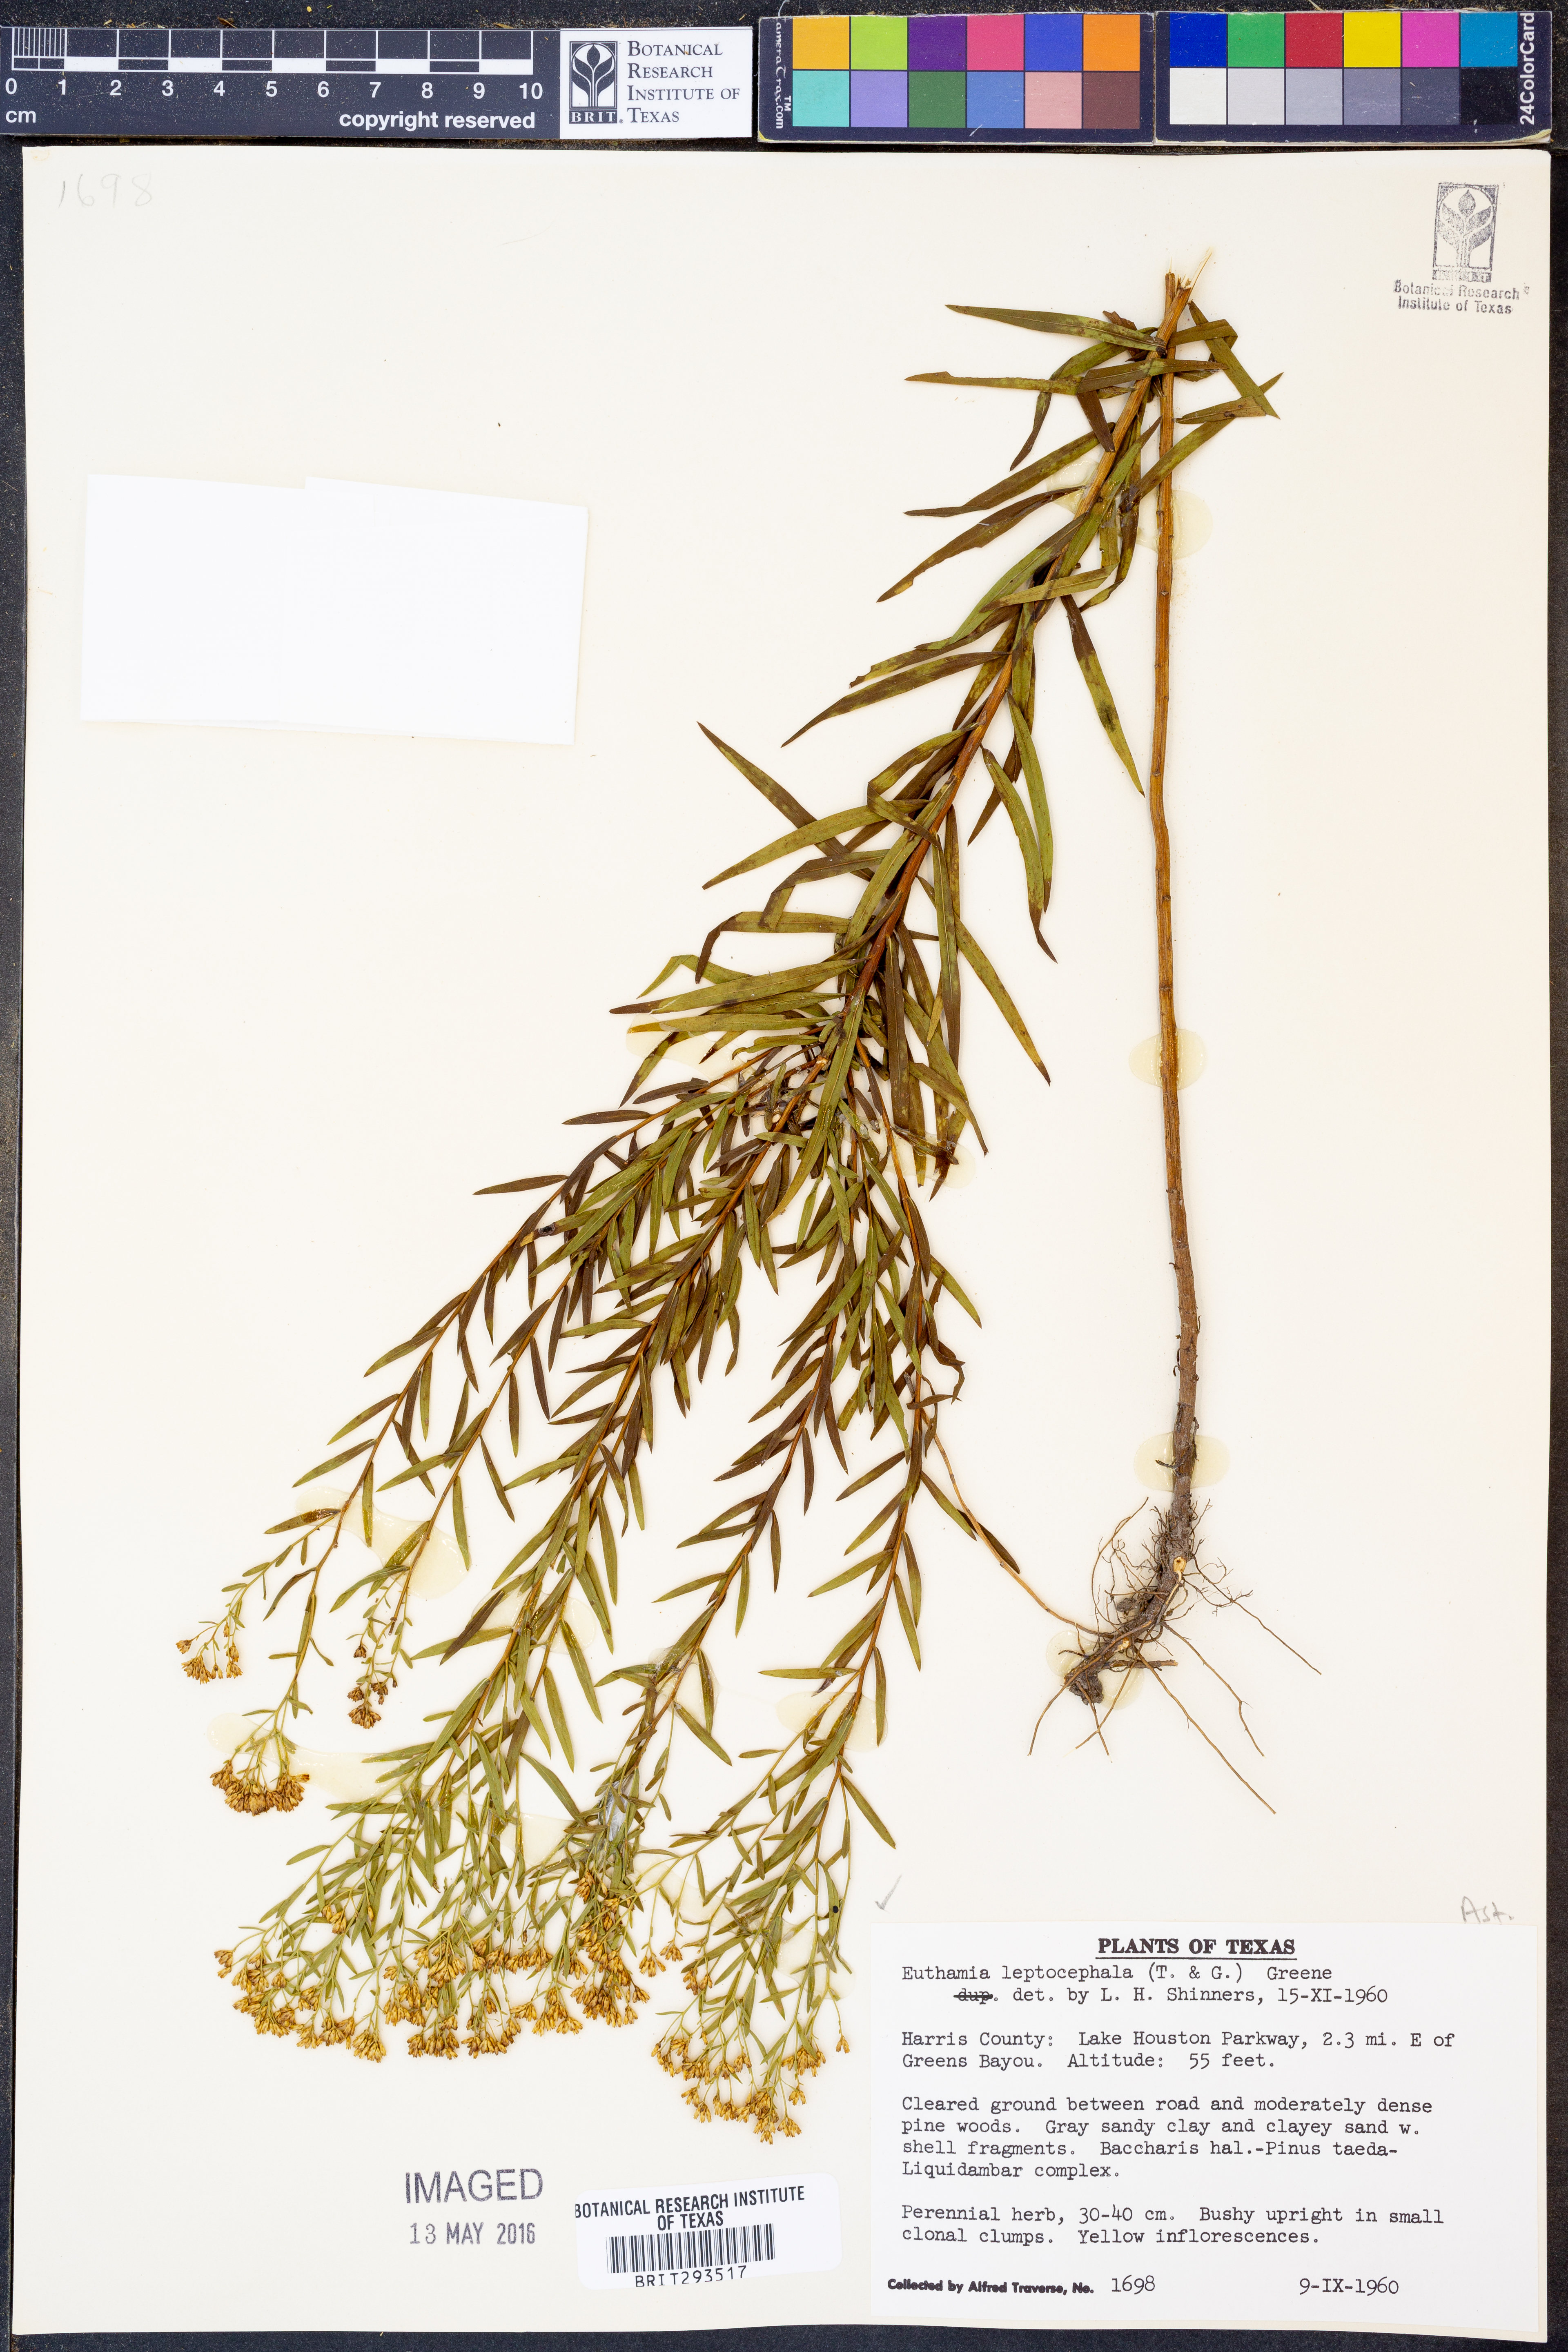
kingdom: Plantae
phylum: Tracheophyta
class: Magnoliopsida
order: Asterales
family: Asteraceae
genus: Euthamia
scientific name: Euthamia leptocephala
